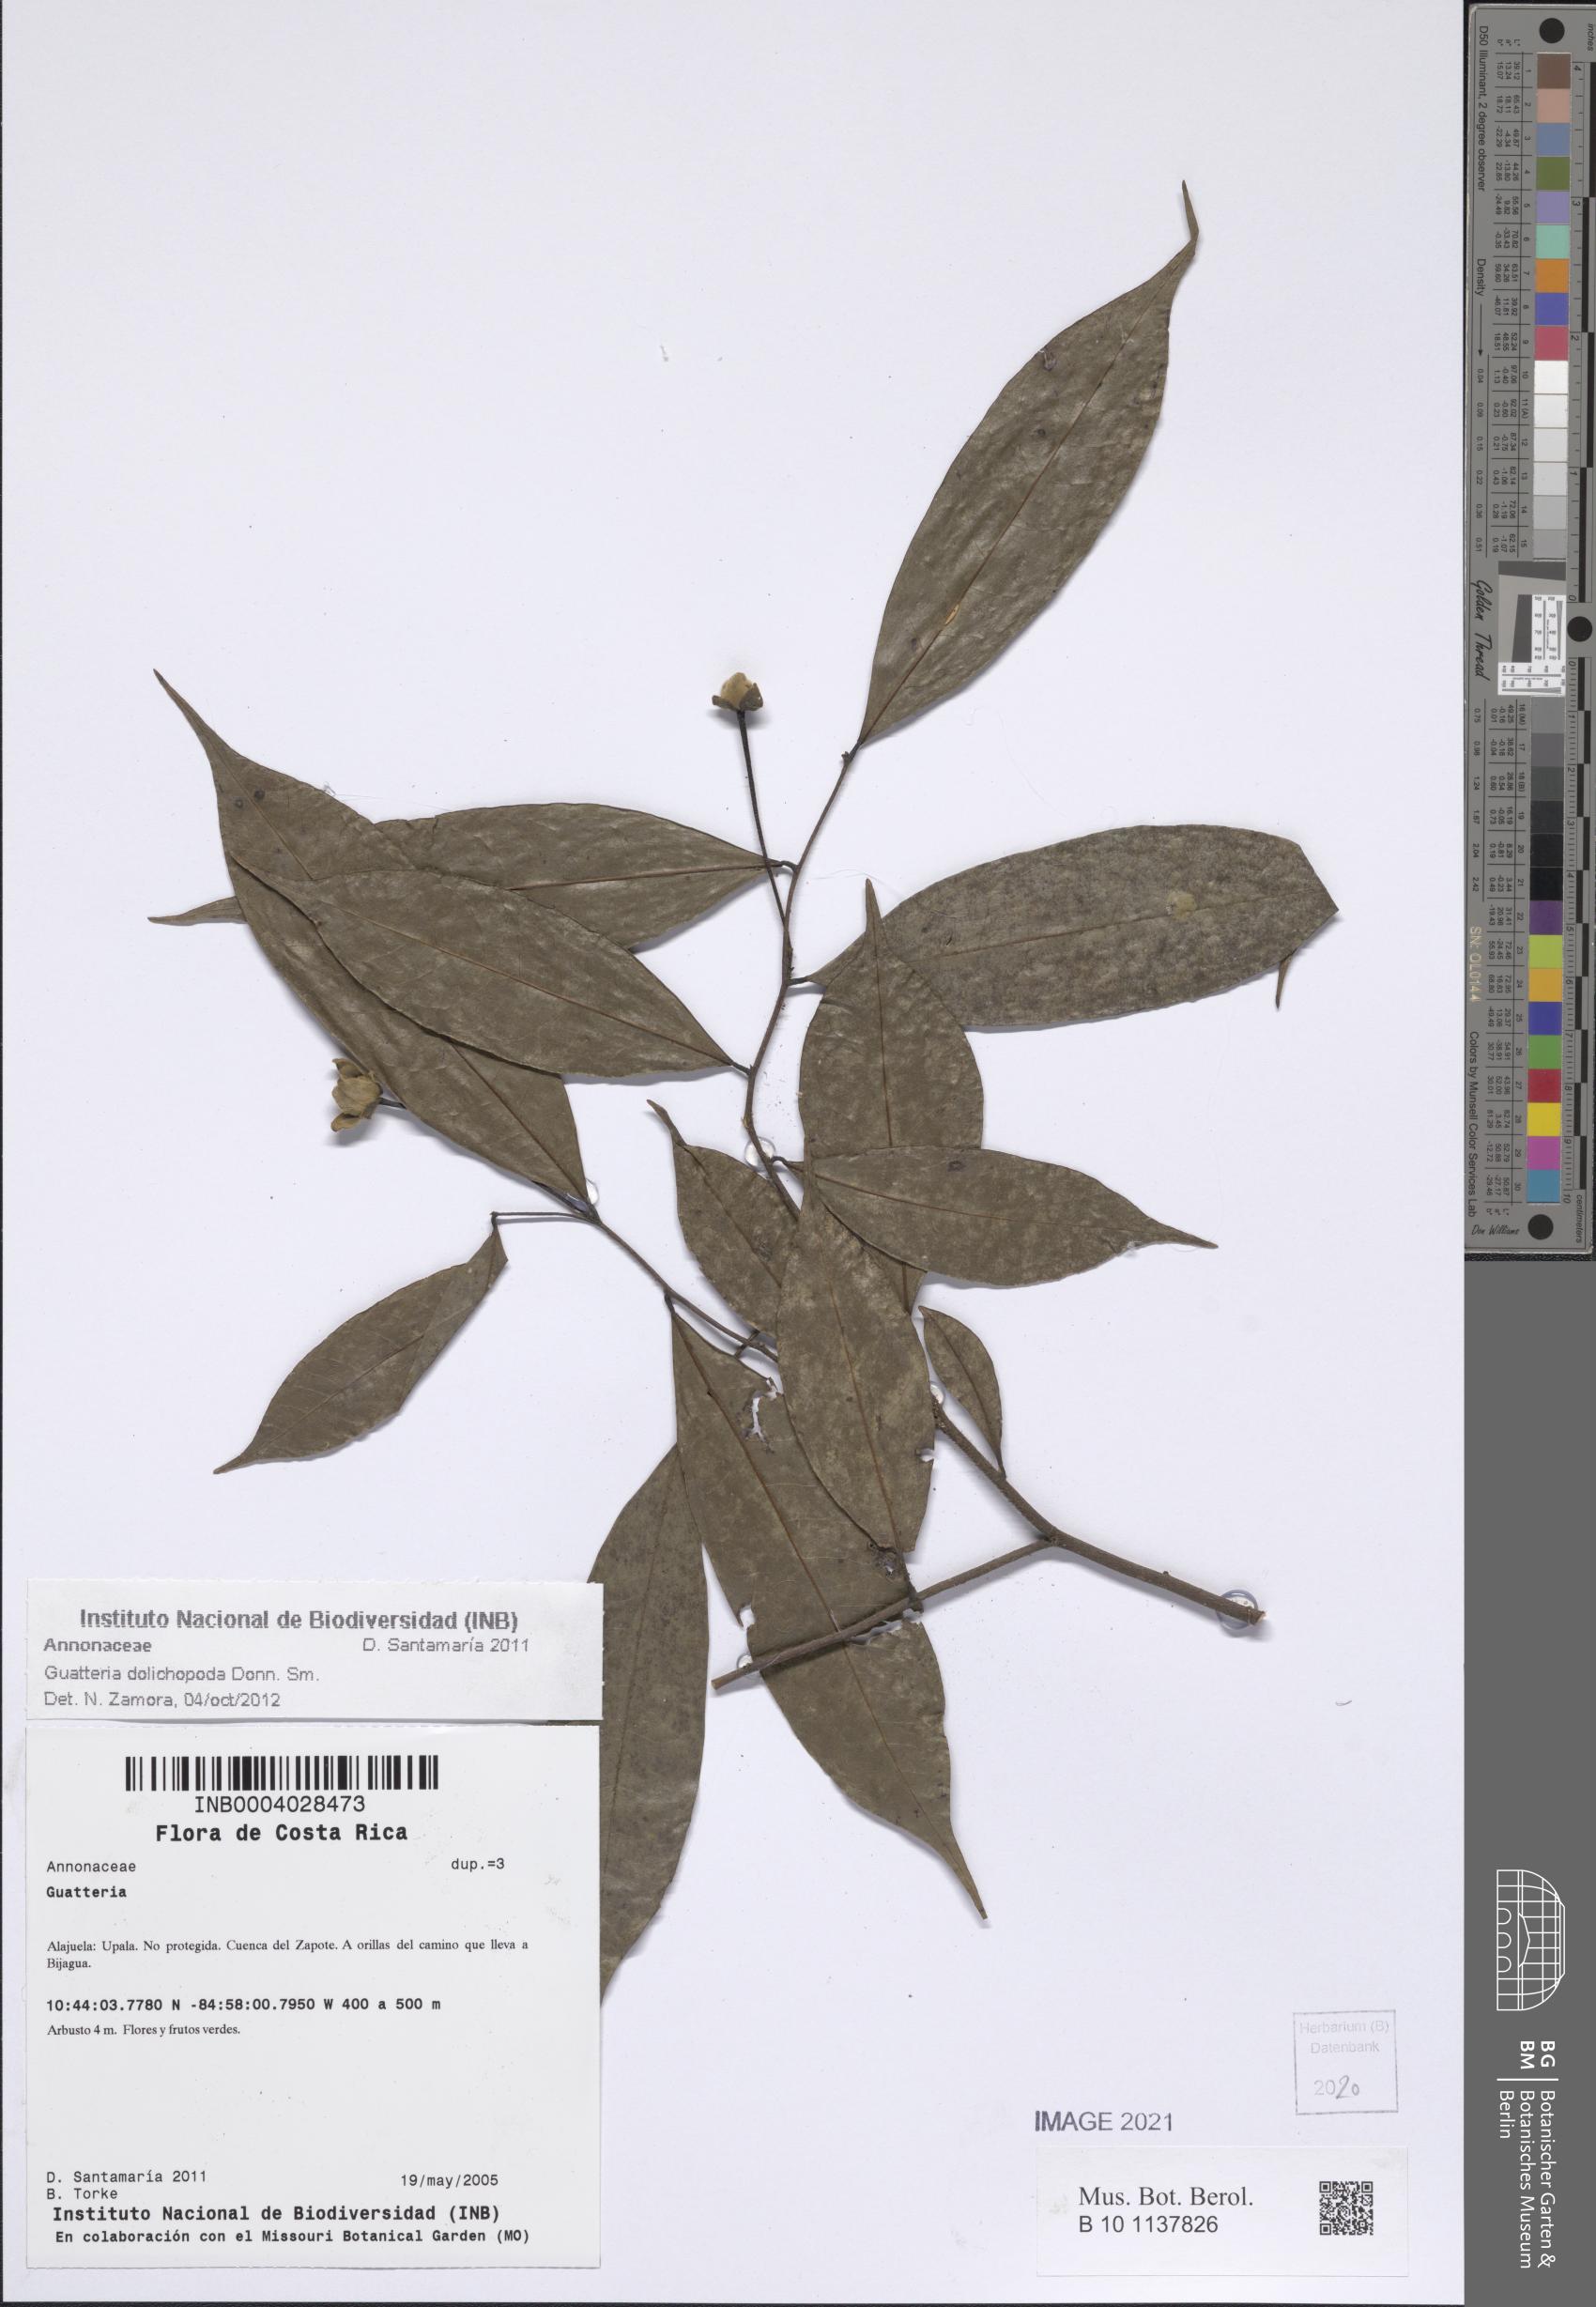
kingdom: Plantae
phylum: Tracheophyta
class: Magnoliopsida
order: Magnoliales
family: Annonaceae
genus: Guatteria
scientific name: Guatteria dolichopoda
